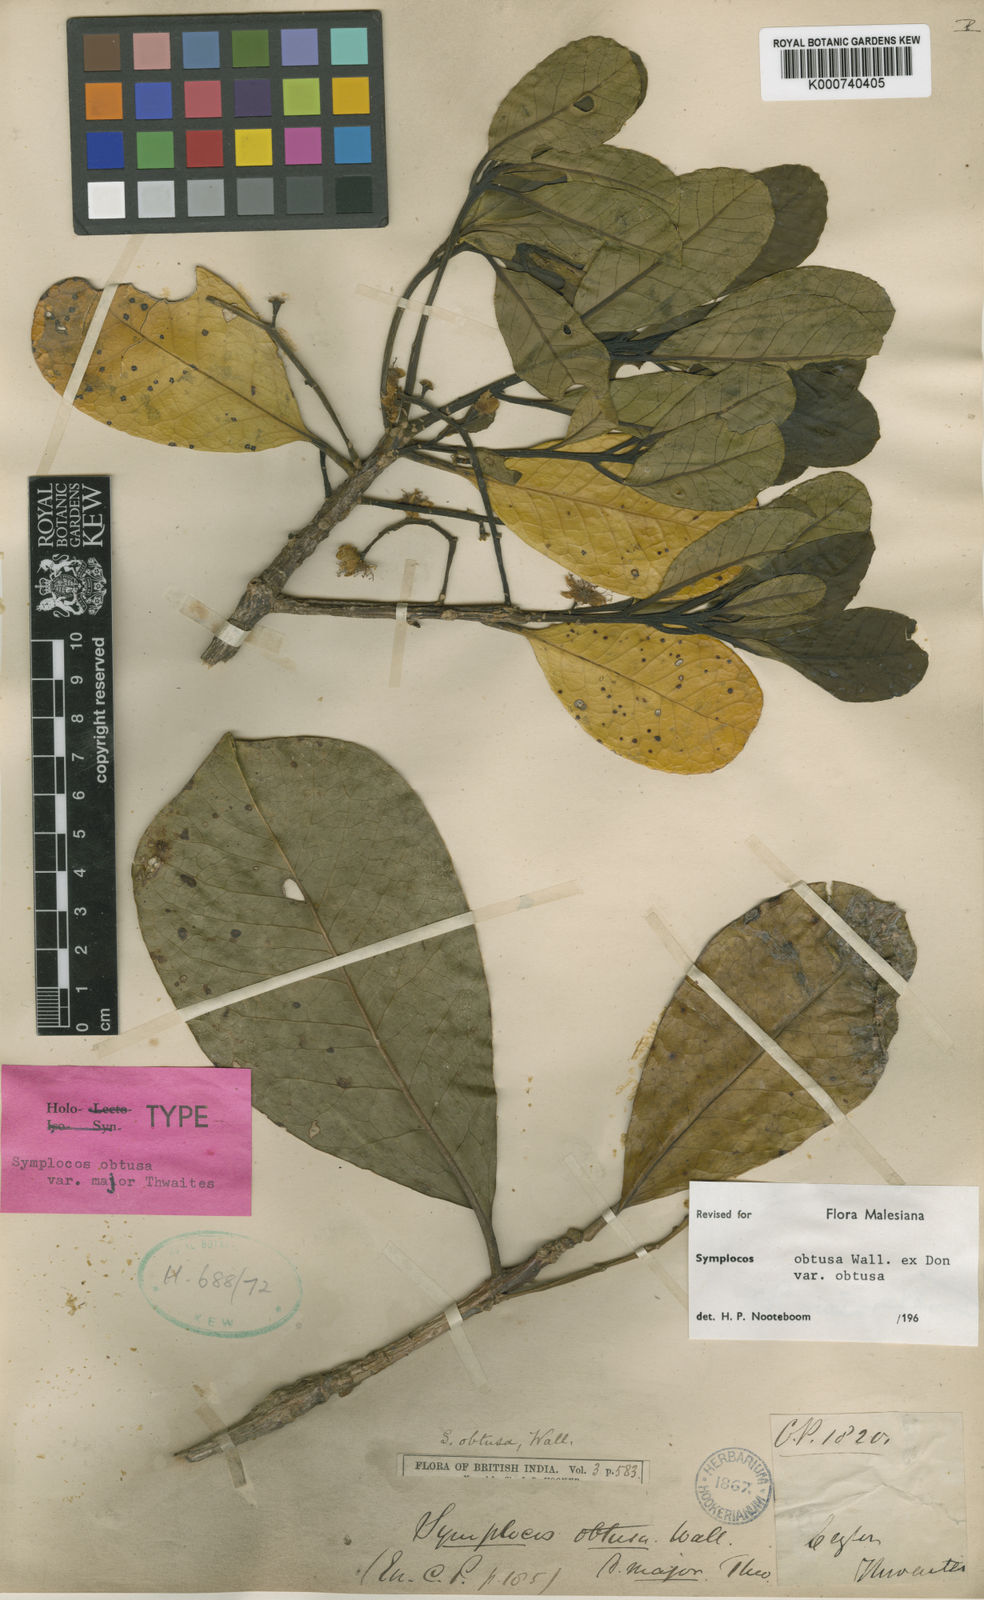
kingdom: Plantae
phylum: Tracheophyta
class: Magnoliopsida
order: Ericales
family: Symplocaceae
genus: Symplocos
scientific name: Symplocos
